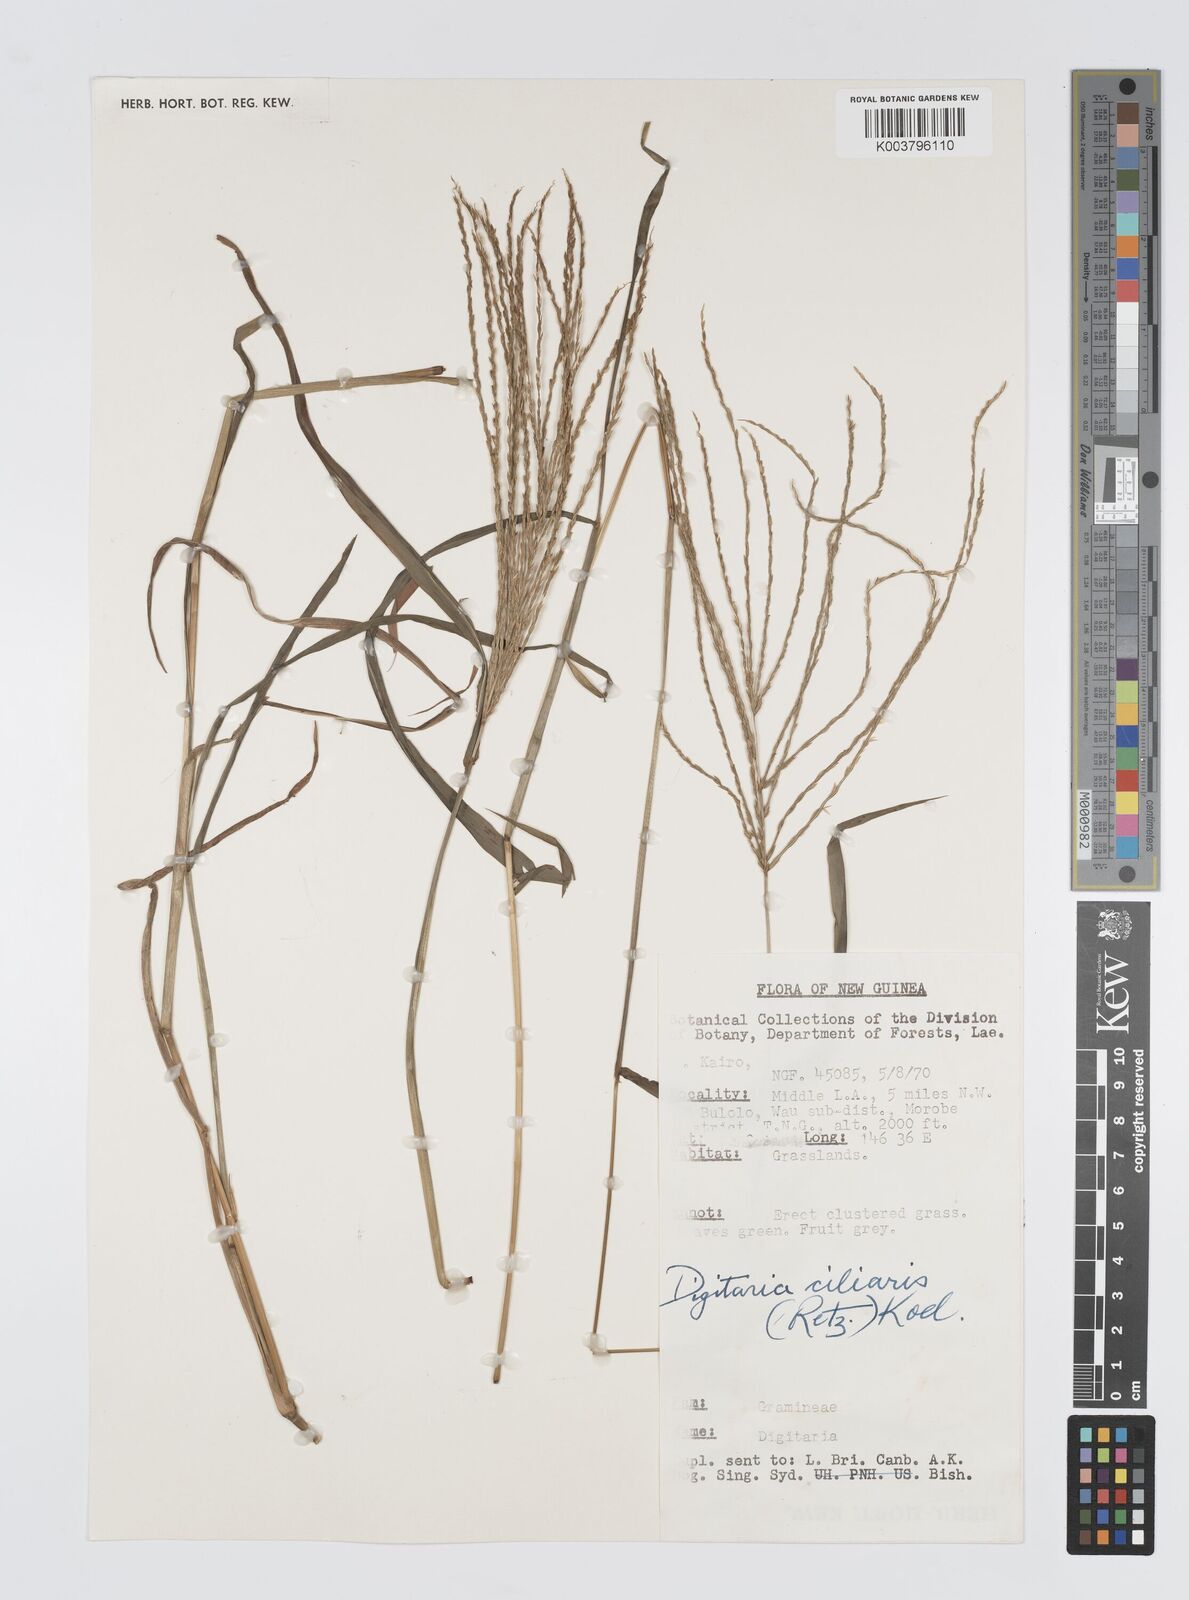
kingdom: Plantae
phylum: Tracheophyta
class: Liliopsida
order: Poales
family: Poaceae
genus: Digitaria
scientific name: Digitaria setigera
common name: East indian crabgrass
